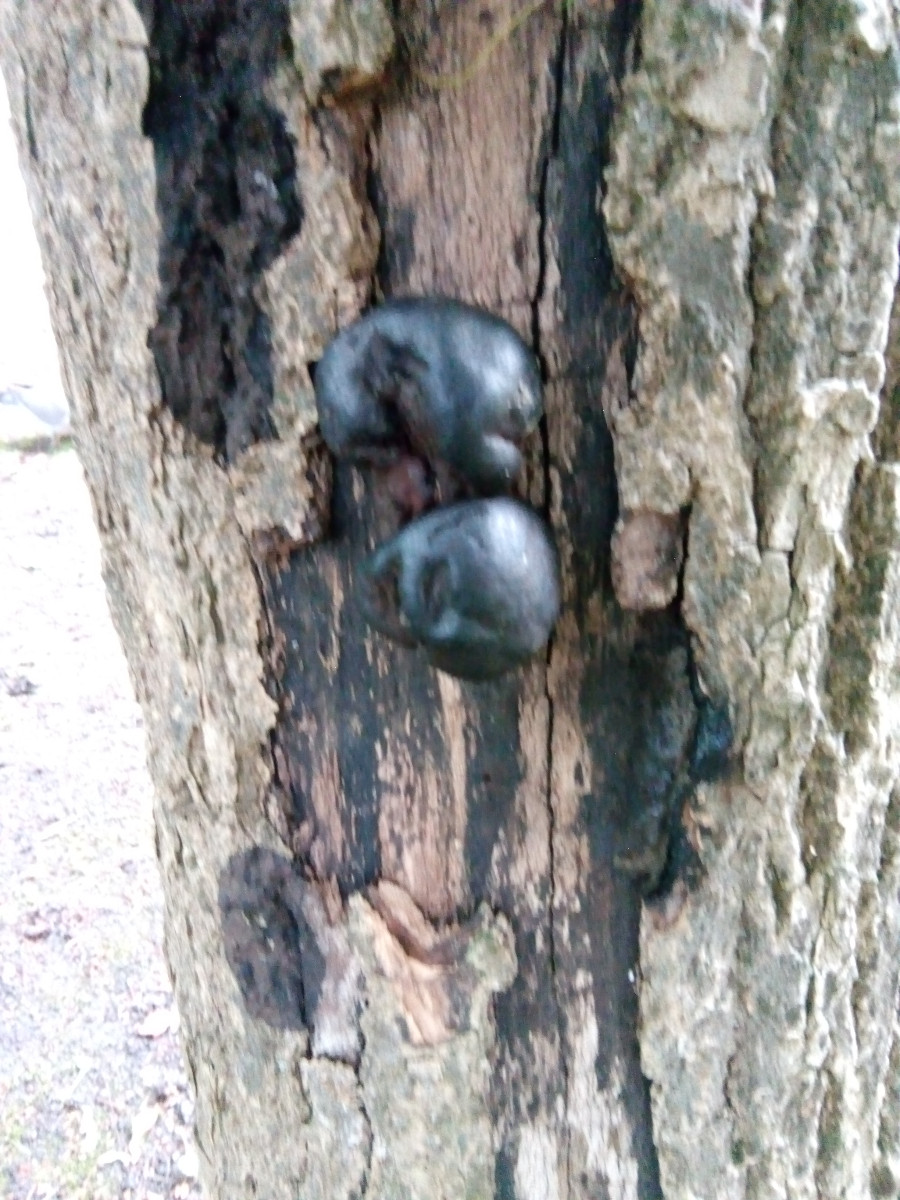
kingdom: Fungi
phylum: Ascomycota
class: Sordariomycetes
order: Xylariales
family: Hypoxylaceae
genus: Daldinia
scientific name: Daldinia concentrica
